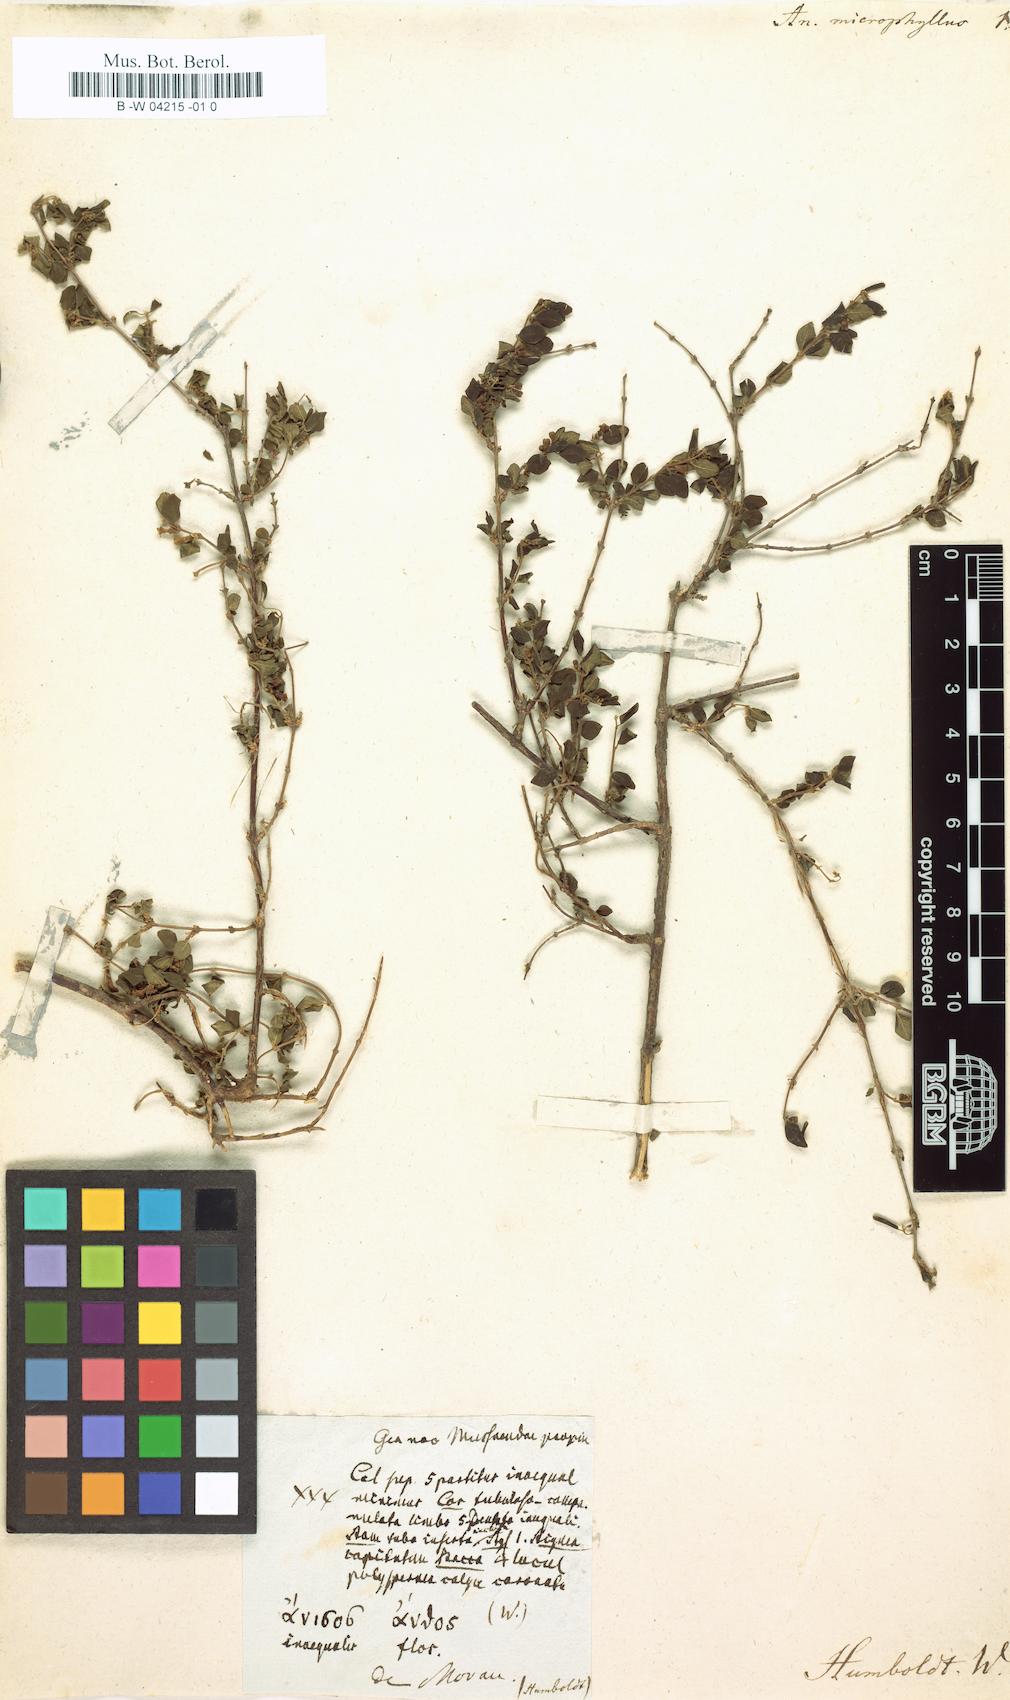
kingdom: Plantae
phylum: Tracheophyta
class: Magnoliopsida
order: Dipsacales
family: Caprifoliaceae
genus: Symphoricarpos
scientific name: Symphoricarpos microphyllus
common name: Small-leaved snowberry
